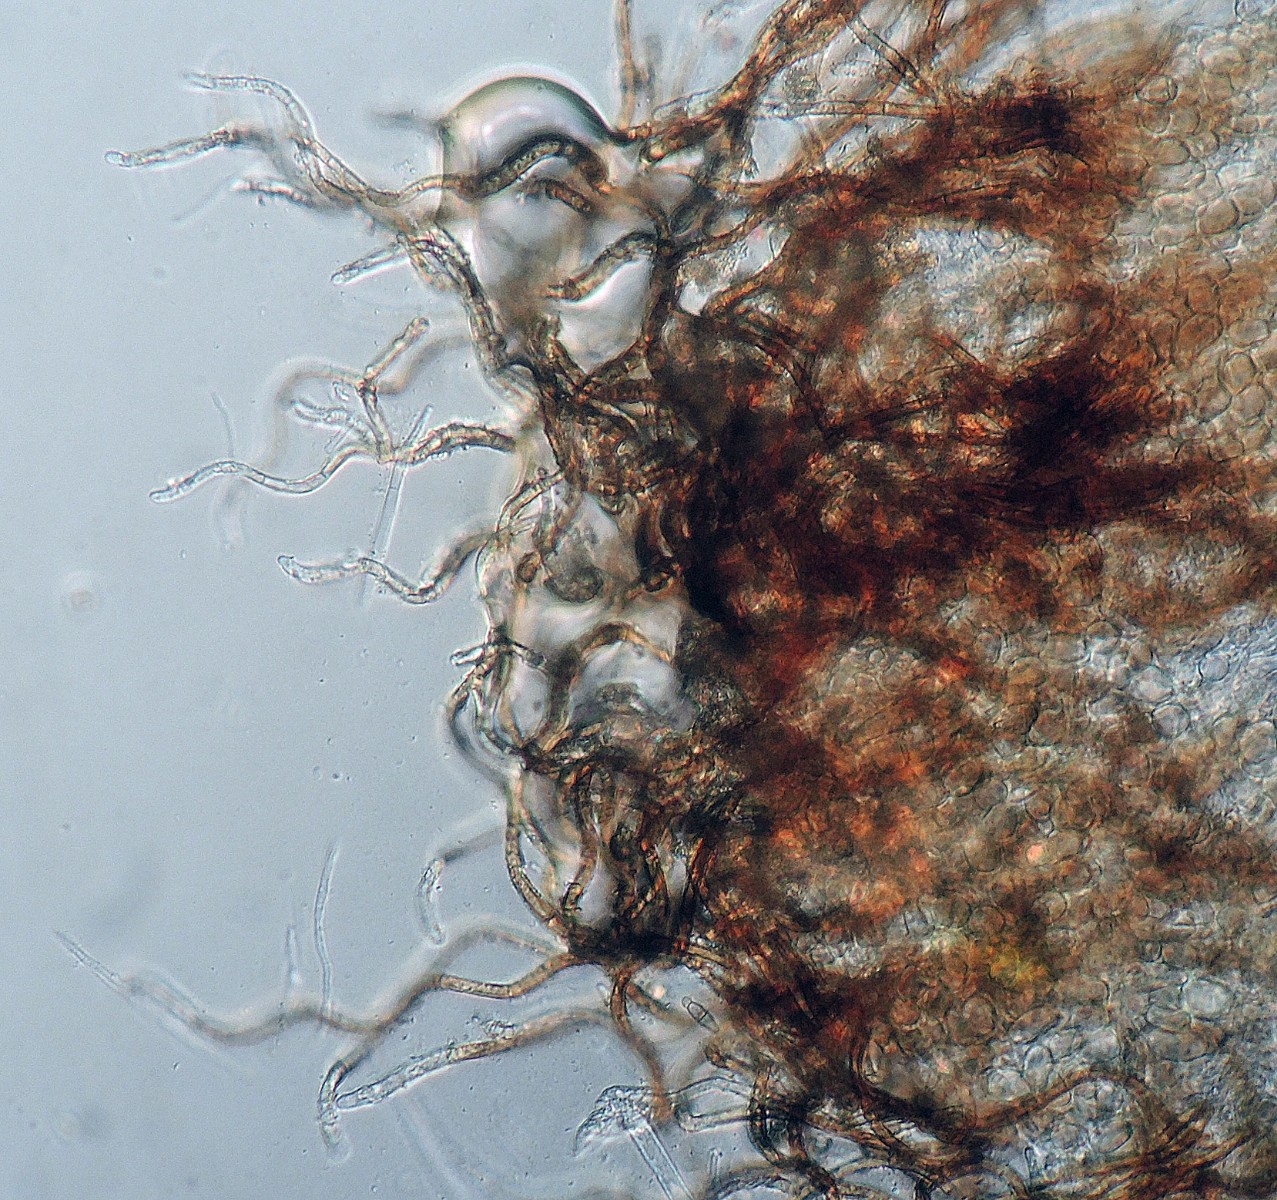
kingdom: Fungi
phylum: Ascomycota
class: Leotiomycetes
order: Helotiales
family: Solenopeziaceae
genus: Lasiobelonium
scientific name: Lasiobelonium variegatum
